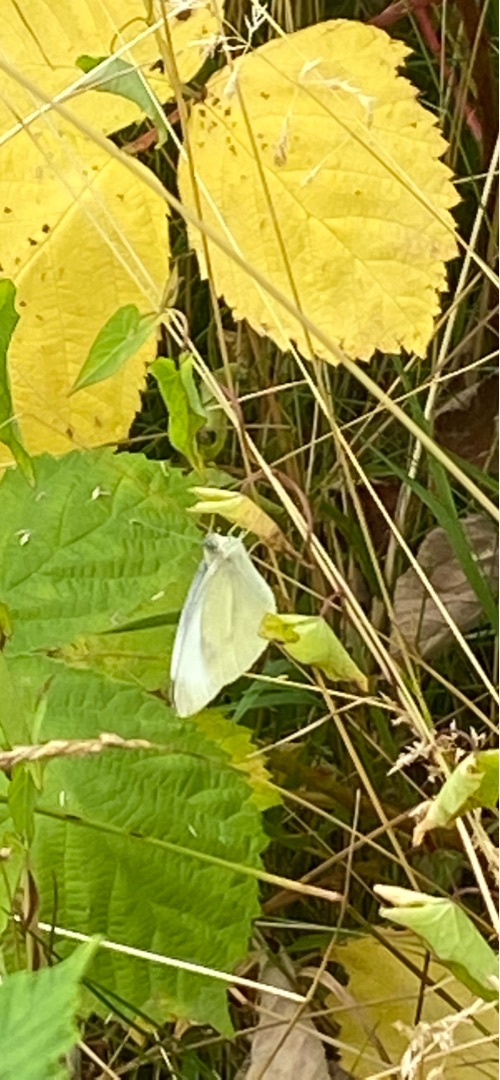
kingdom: Animalia
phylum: Arthropoda
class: Insecta
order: Lepidoptera
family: Pieridae
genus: Pieris
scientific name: Pieris rapae
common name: Lille kålsommerfugl
